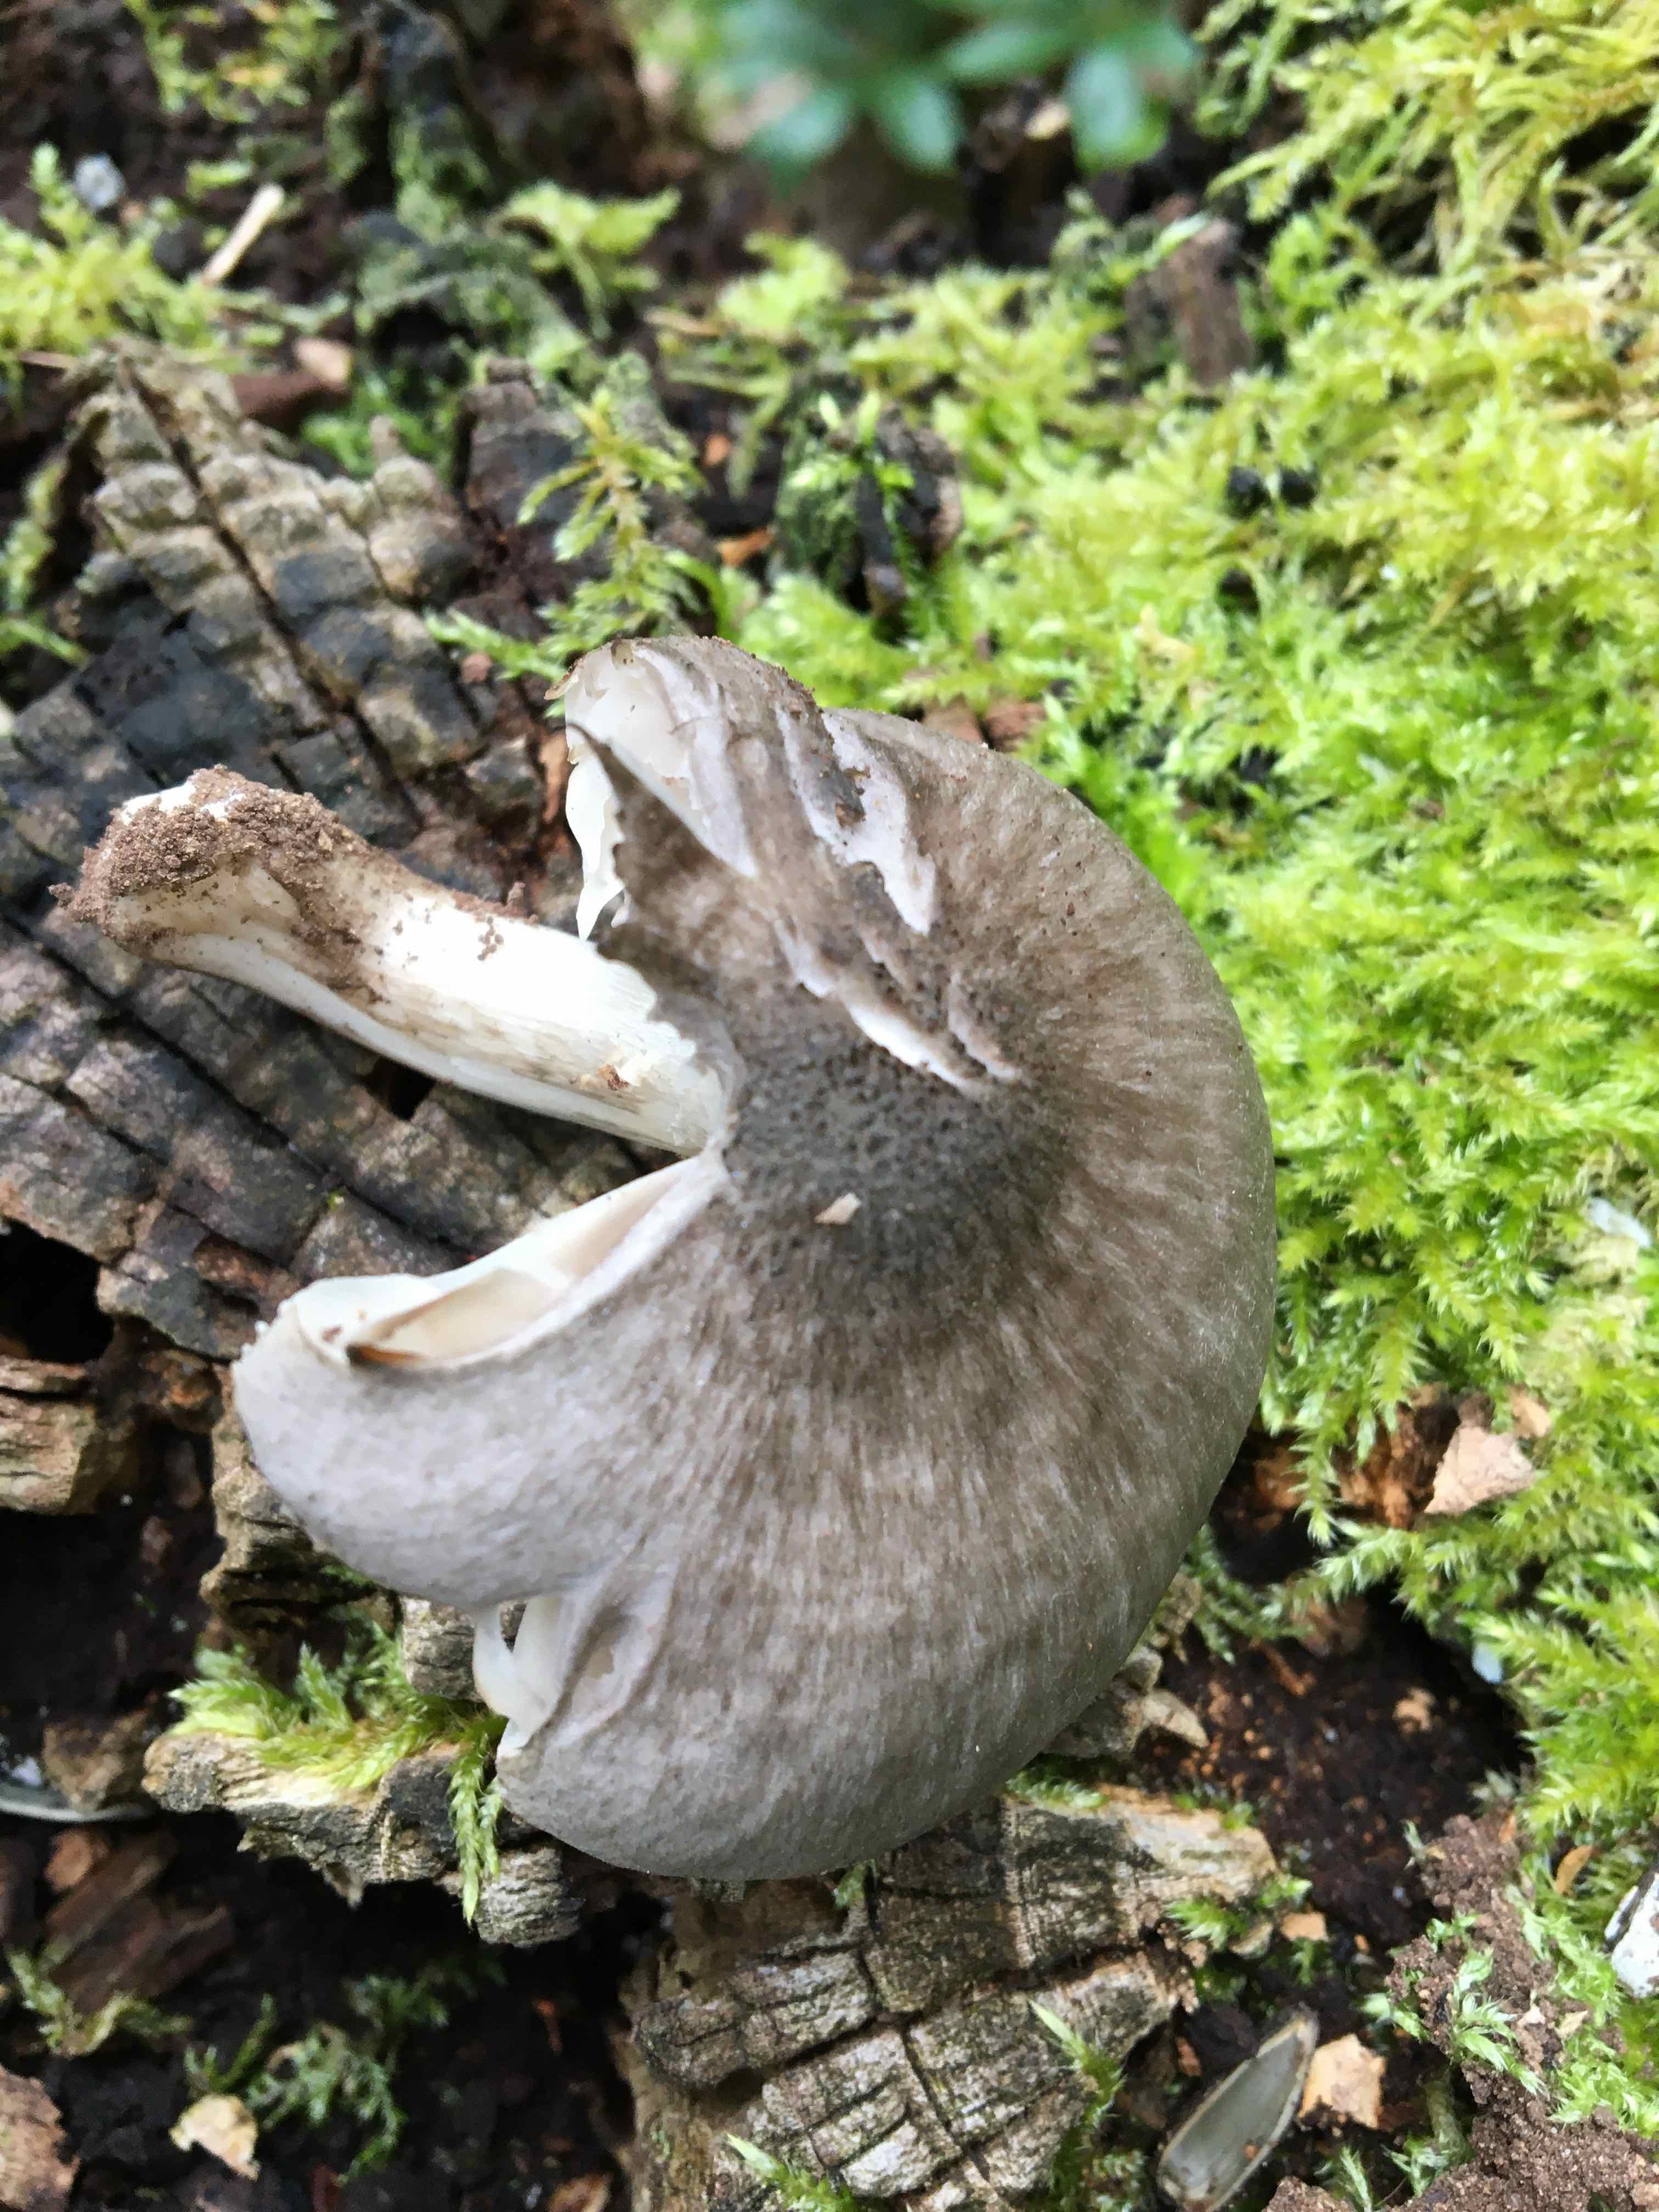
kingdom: Fungi
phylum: Basidiomycota
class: Agaricomycetes
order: Agaricales
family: Pluteaceae
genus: Pluteus
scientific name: Pluteus salicinus
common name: stiv skærmhat
